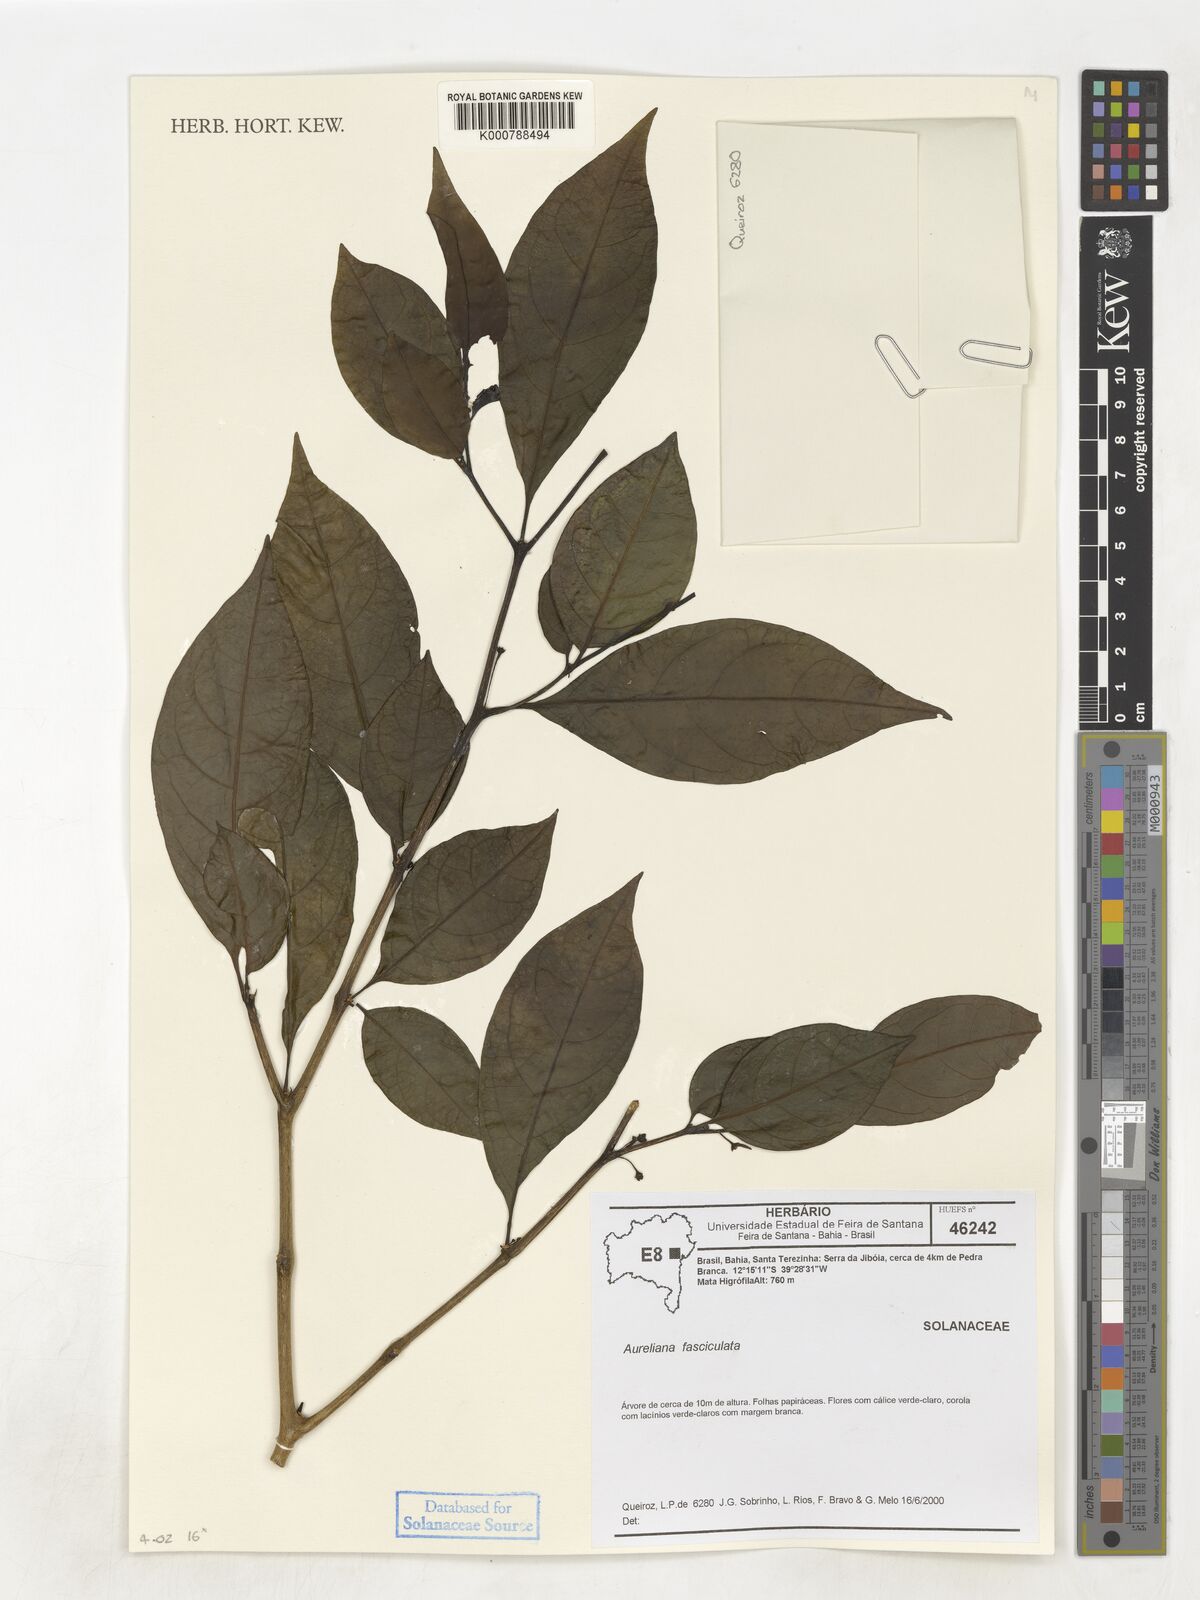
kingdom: Plantae
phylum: Tracheophyta
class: Magnoliopsida
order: Solanales
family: Solanaceae
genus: Athenaea
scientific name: Athenaea fasciculata
